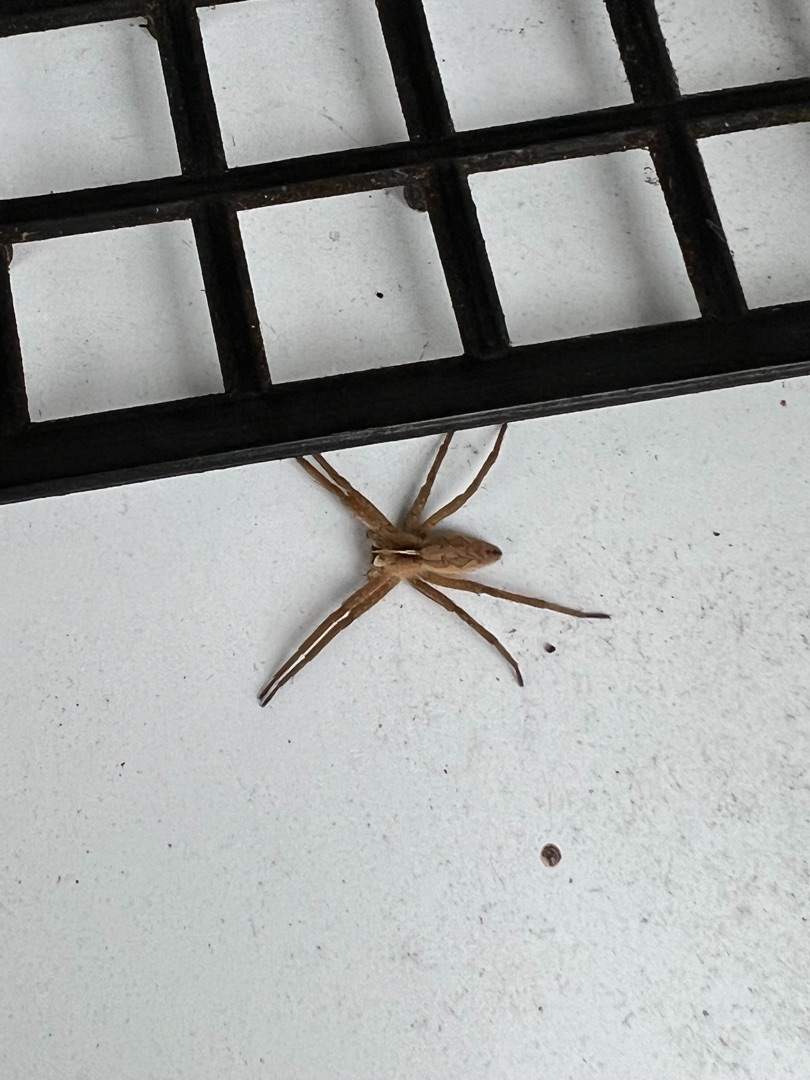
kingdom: Animalia
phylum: Arthropoda
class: Arachnida
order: Araneae
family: Pisauridae
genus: Pisaura
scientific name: Pisaura mirabilis
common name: Almindelig rovedderkop
